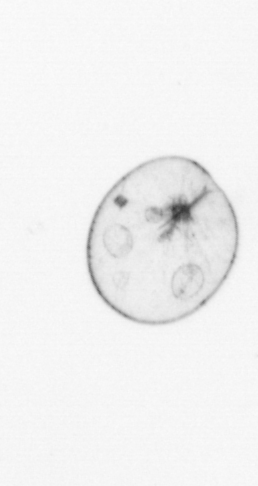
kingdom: Chromista
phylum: Myzozoa
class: Dinophyceae
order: Noctilucales
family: Noctilucaceae
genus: Noctiluca
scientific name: Noctiluca scintillans
